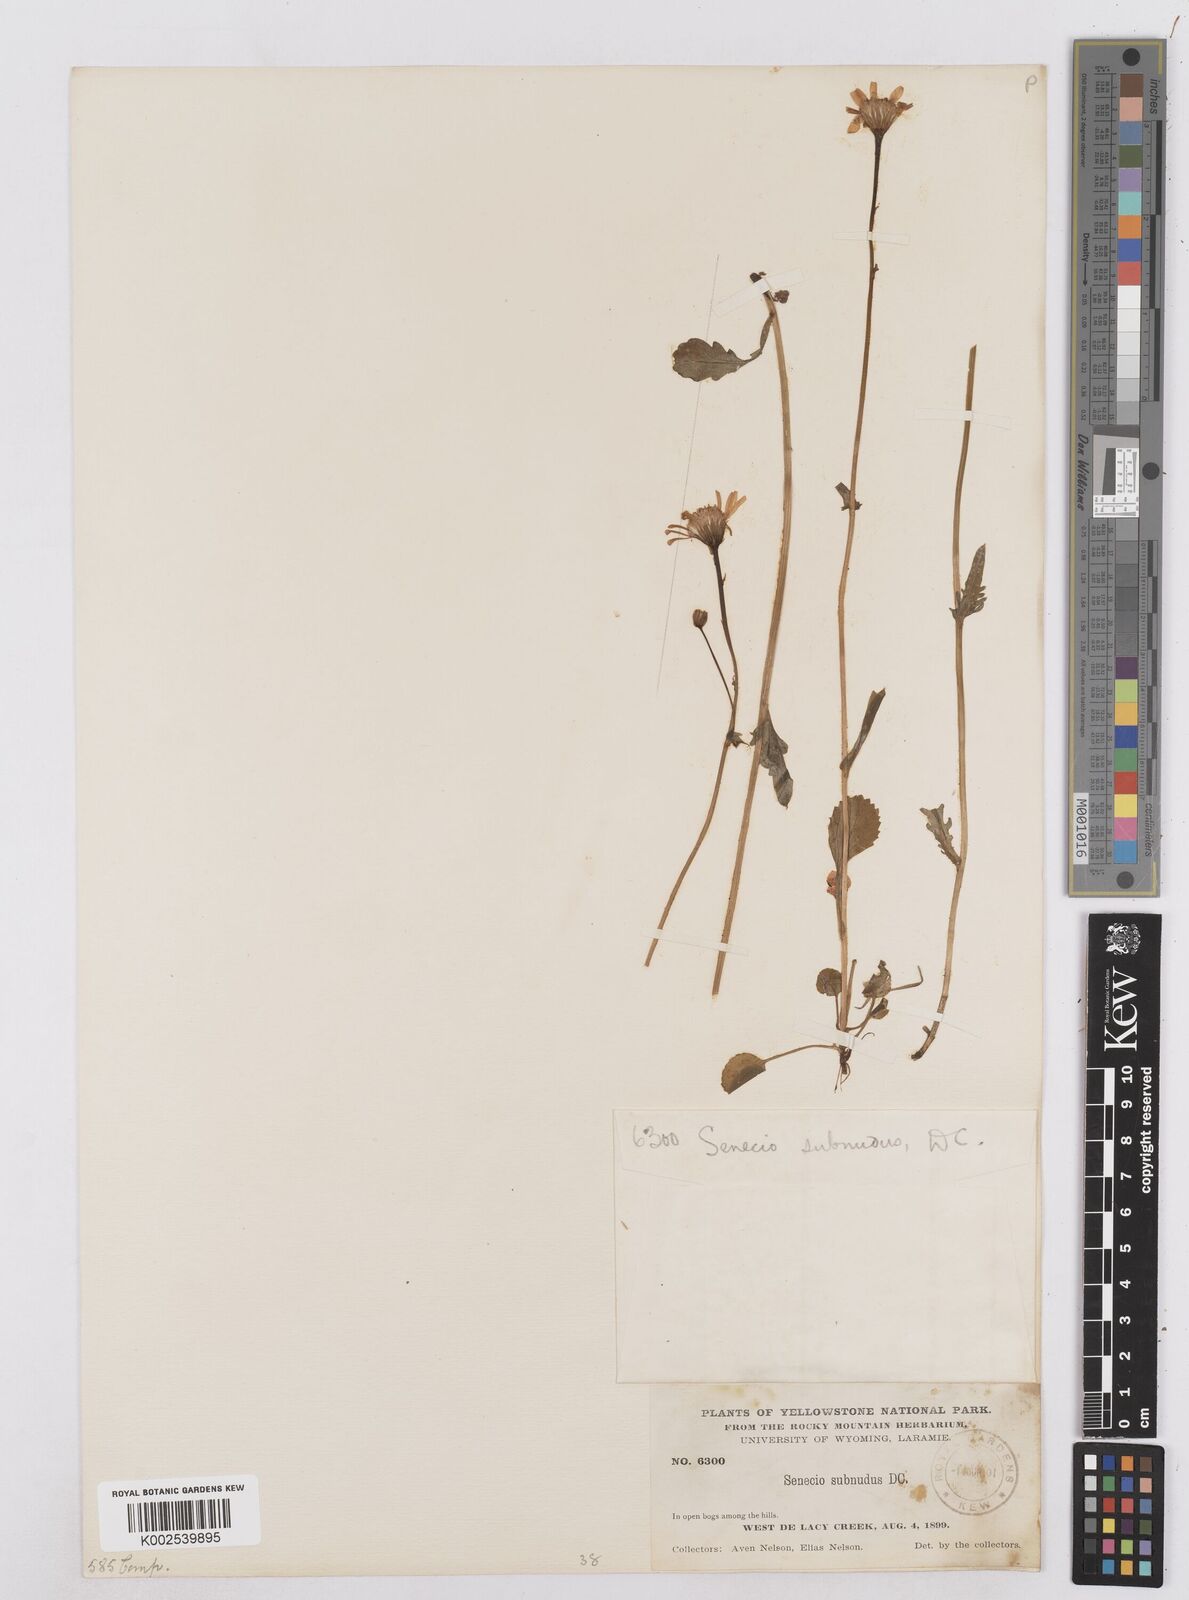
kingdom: Plantae
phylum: Tracheophyta
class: Magnoliopsida
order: Asterales
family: Asteraceae
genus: Packera
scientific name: Packera aurea
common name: Golden groundsel
